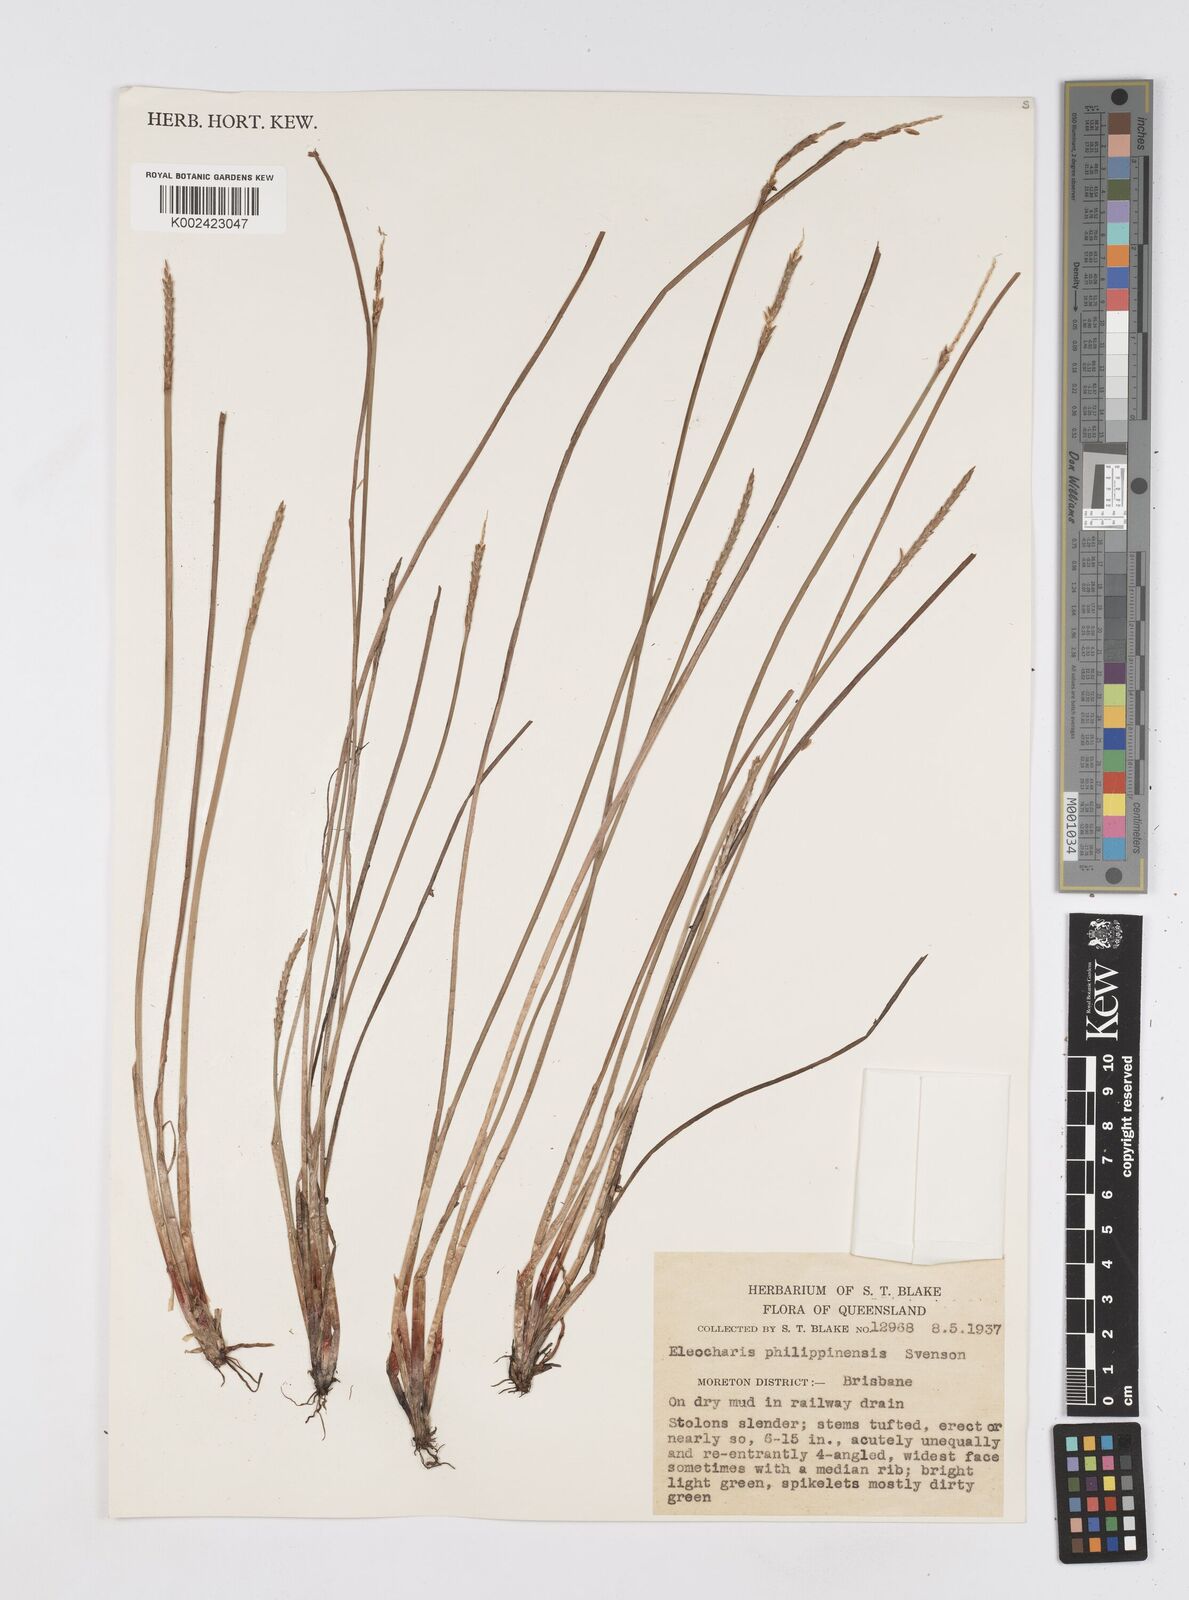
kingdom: Plantae
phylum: Tracheophyta
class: Liliopsida
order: Poales
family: Cyperaceae
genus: Eleocharis
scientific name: Eleocharis nuda
